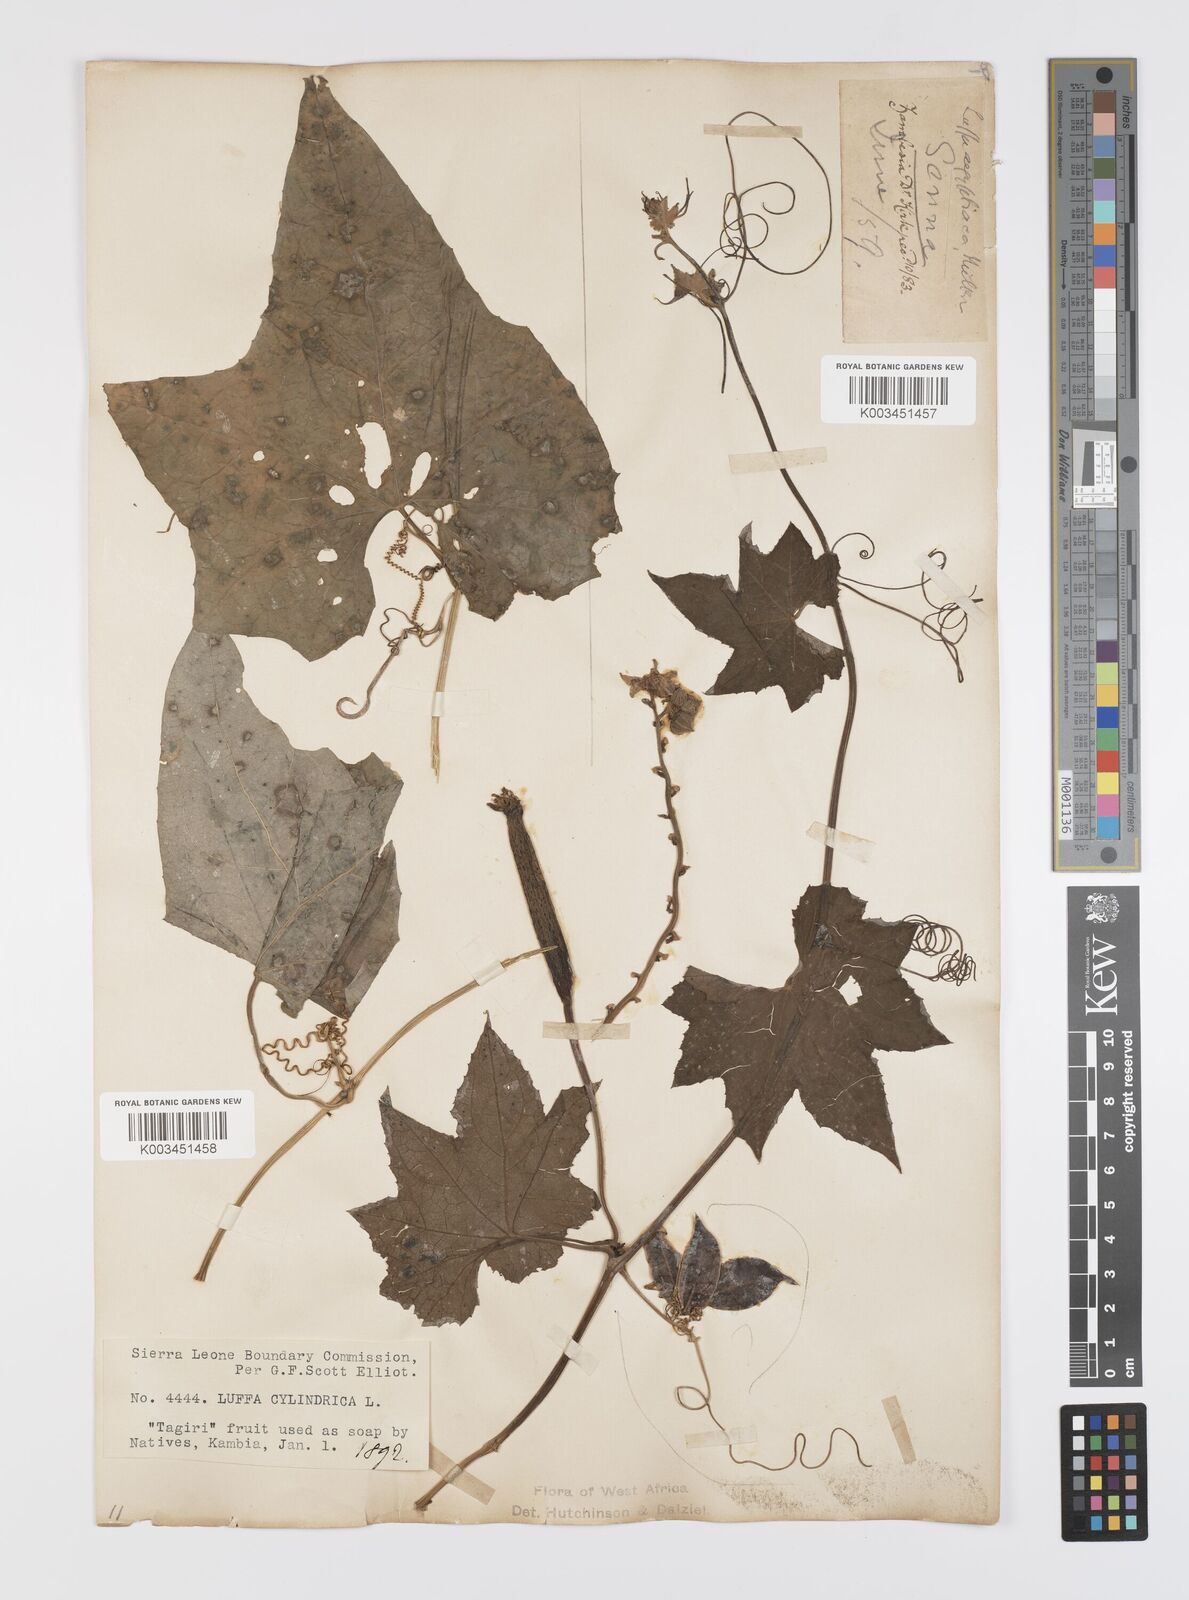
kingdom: Plantae
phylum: Tracheophyta
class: Magnoliopsida
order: Cucurbitales
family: Cucurbitaceae
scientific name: Cucurbitaceae
